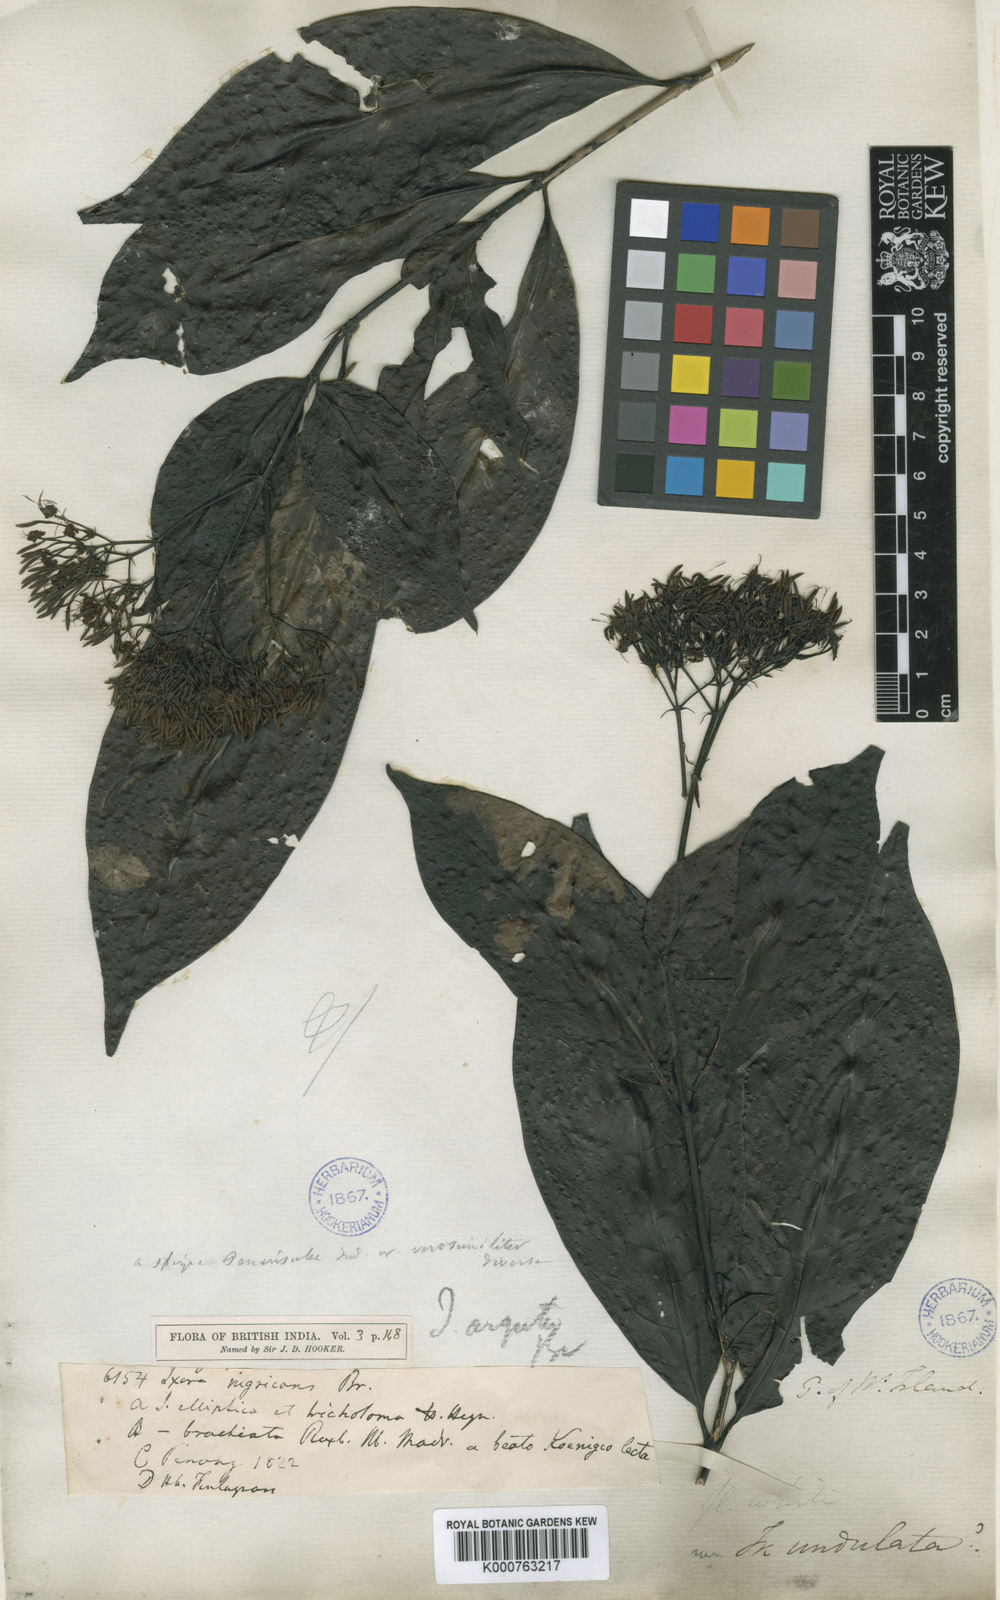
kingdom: Plantae
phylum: Tracheophyta
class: Magnoliopsida
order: Gentianales
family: Rubiaceae
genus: Ixora
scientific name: Ixora
